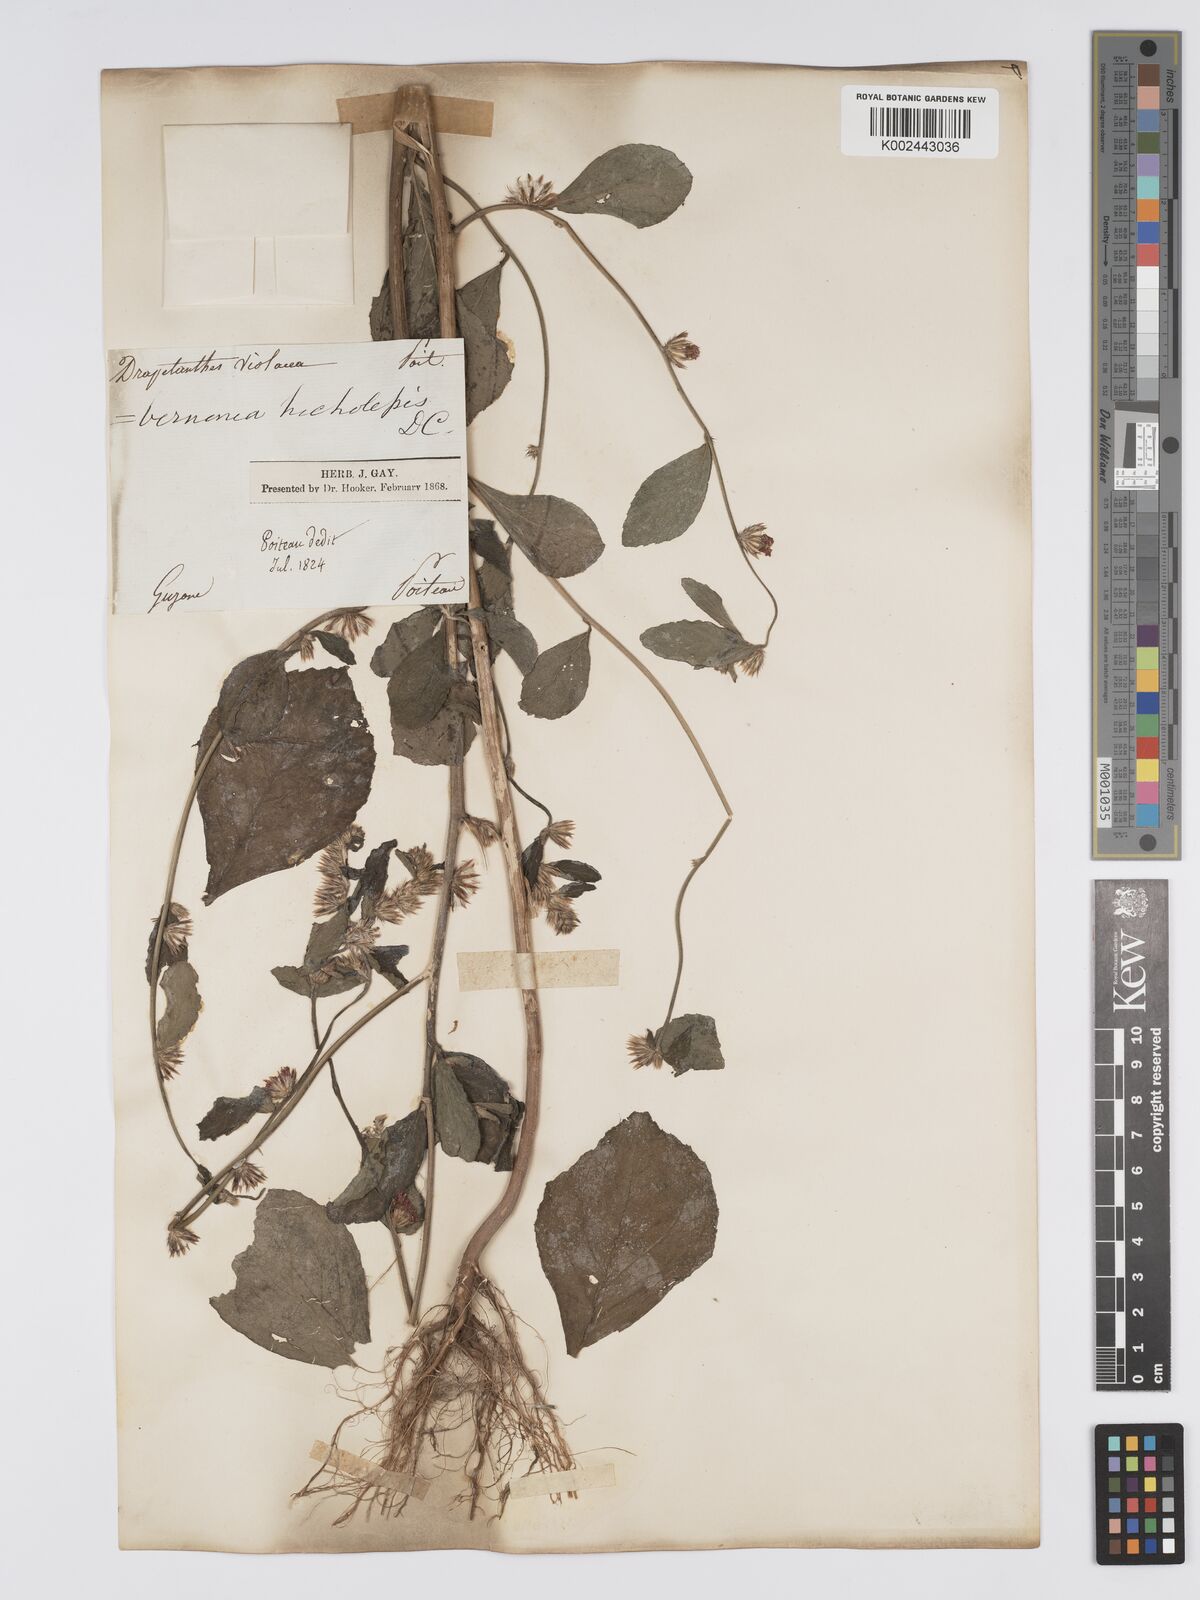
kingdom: Plantae
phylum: Tracheophyta
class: Magnoliopsida
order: Asterales
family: Asteraceae
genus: Lepidaploa
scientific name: Lepidaploa remotiflora
